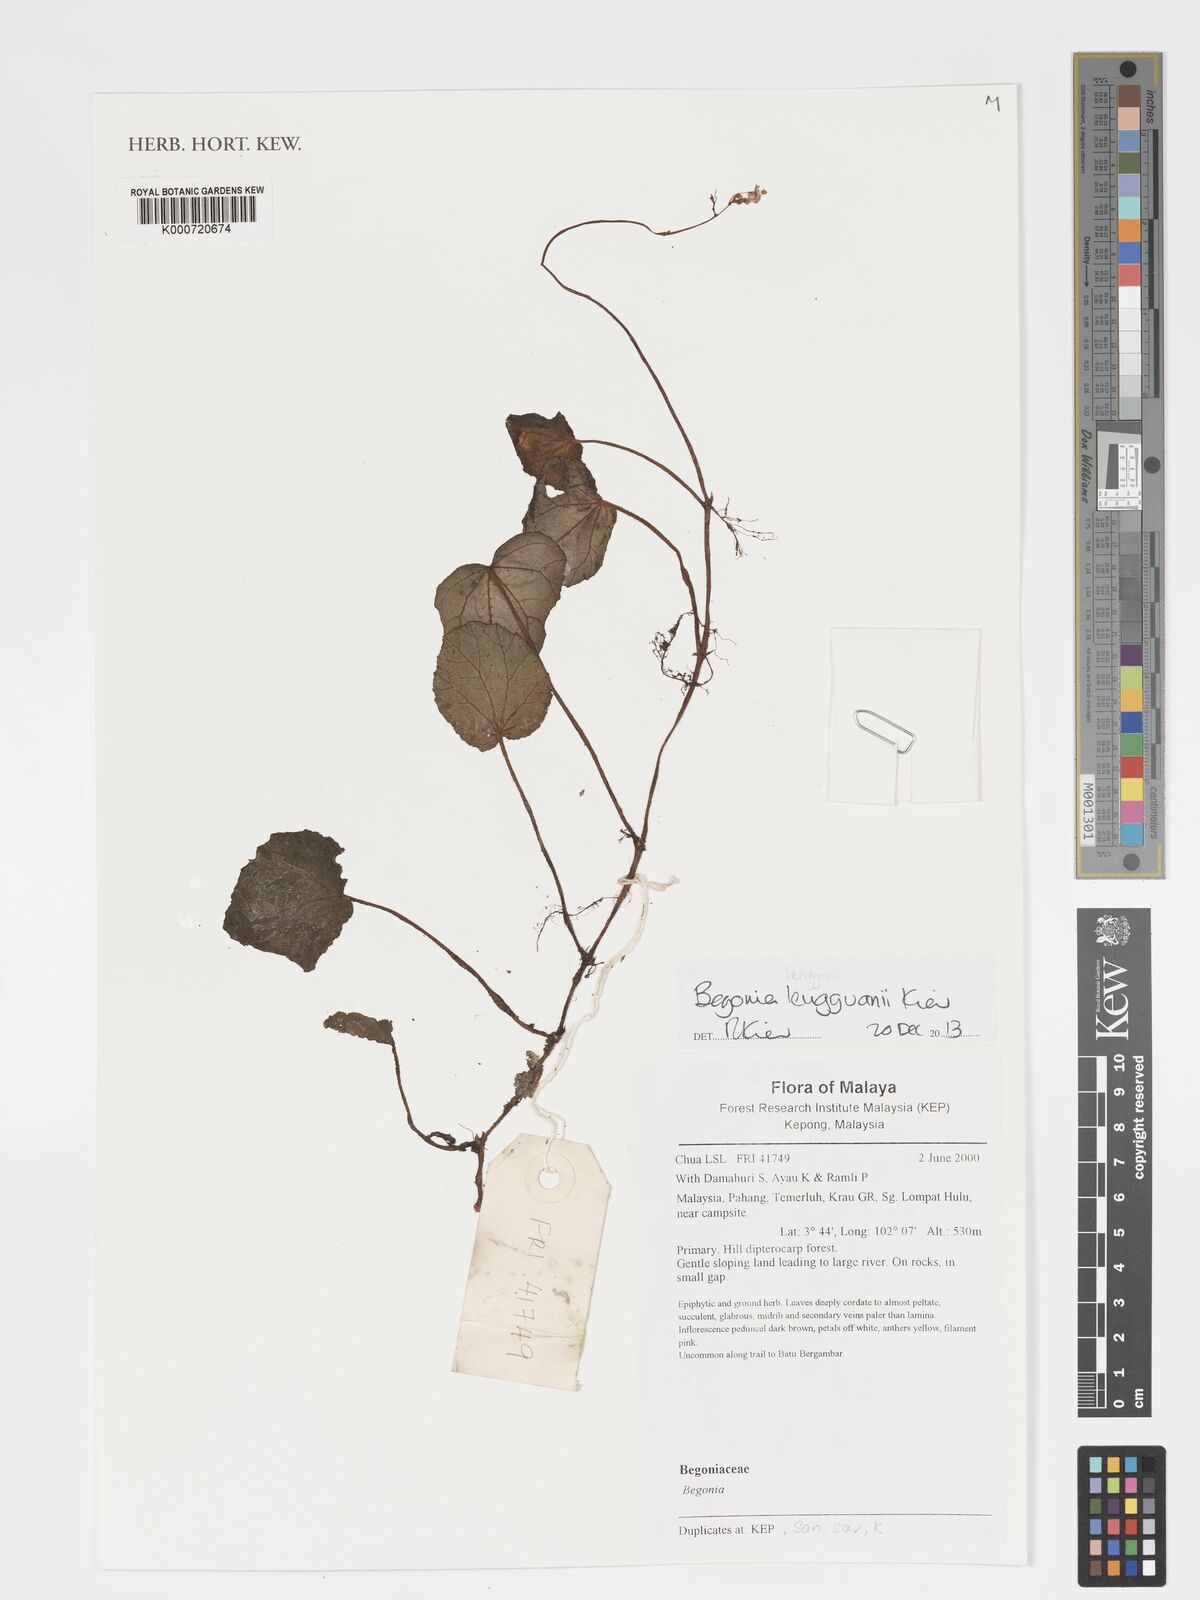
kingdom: Plantae
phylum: Tracheophyta
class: Magnoliopsida
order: Cucurbitales
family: Begoniaceae
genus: Begonia
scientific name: Begonia lengguanii
